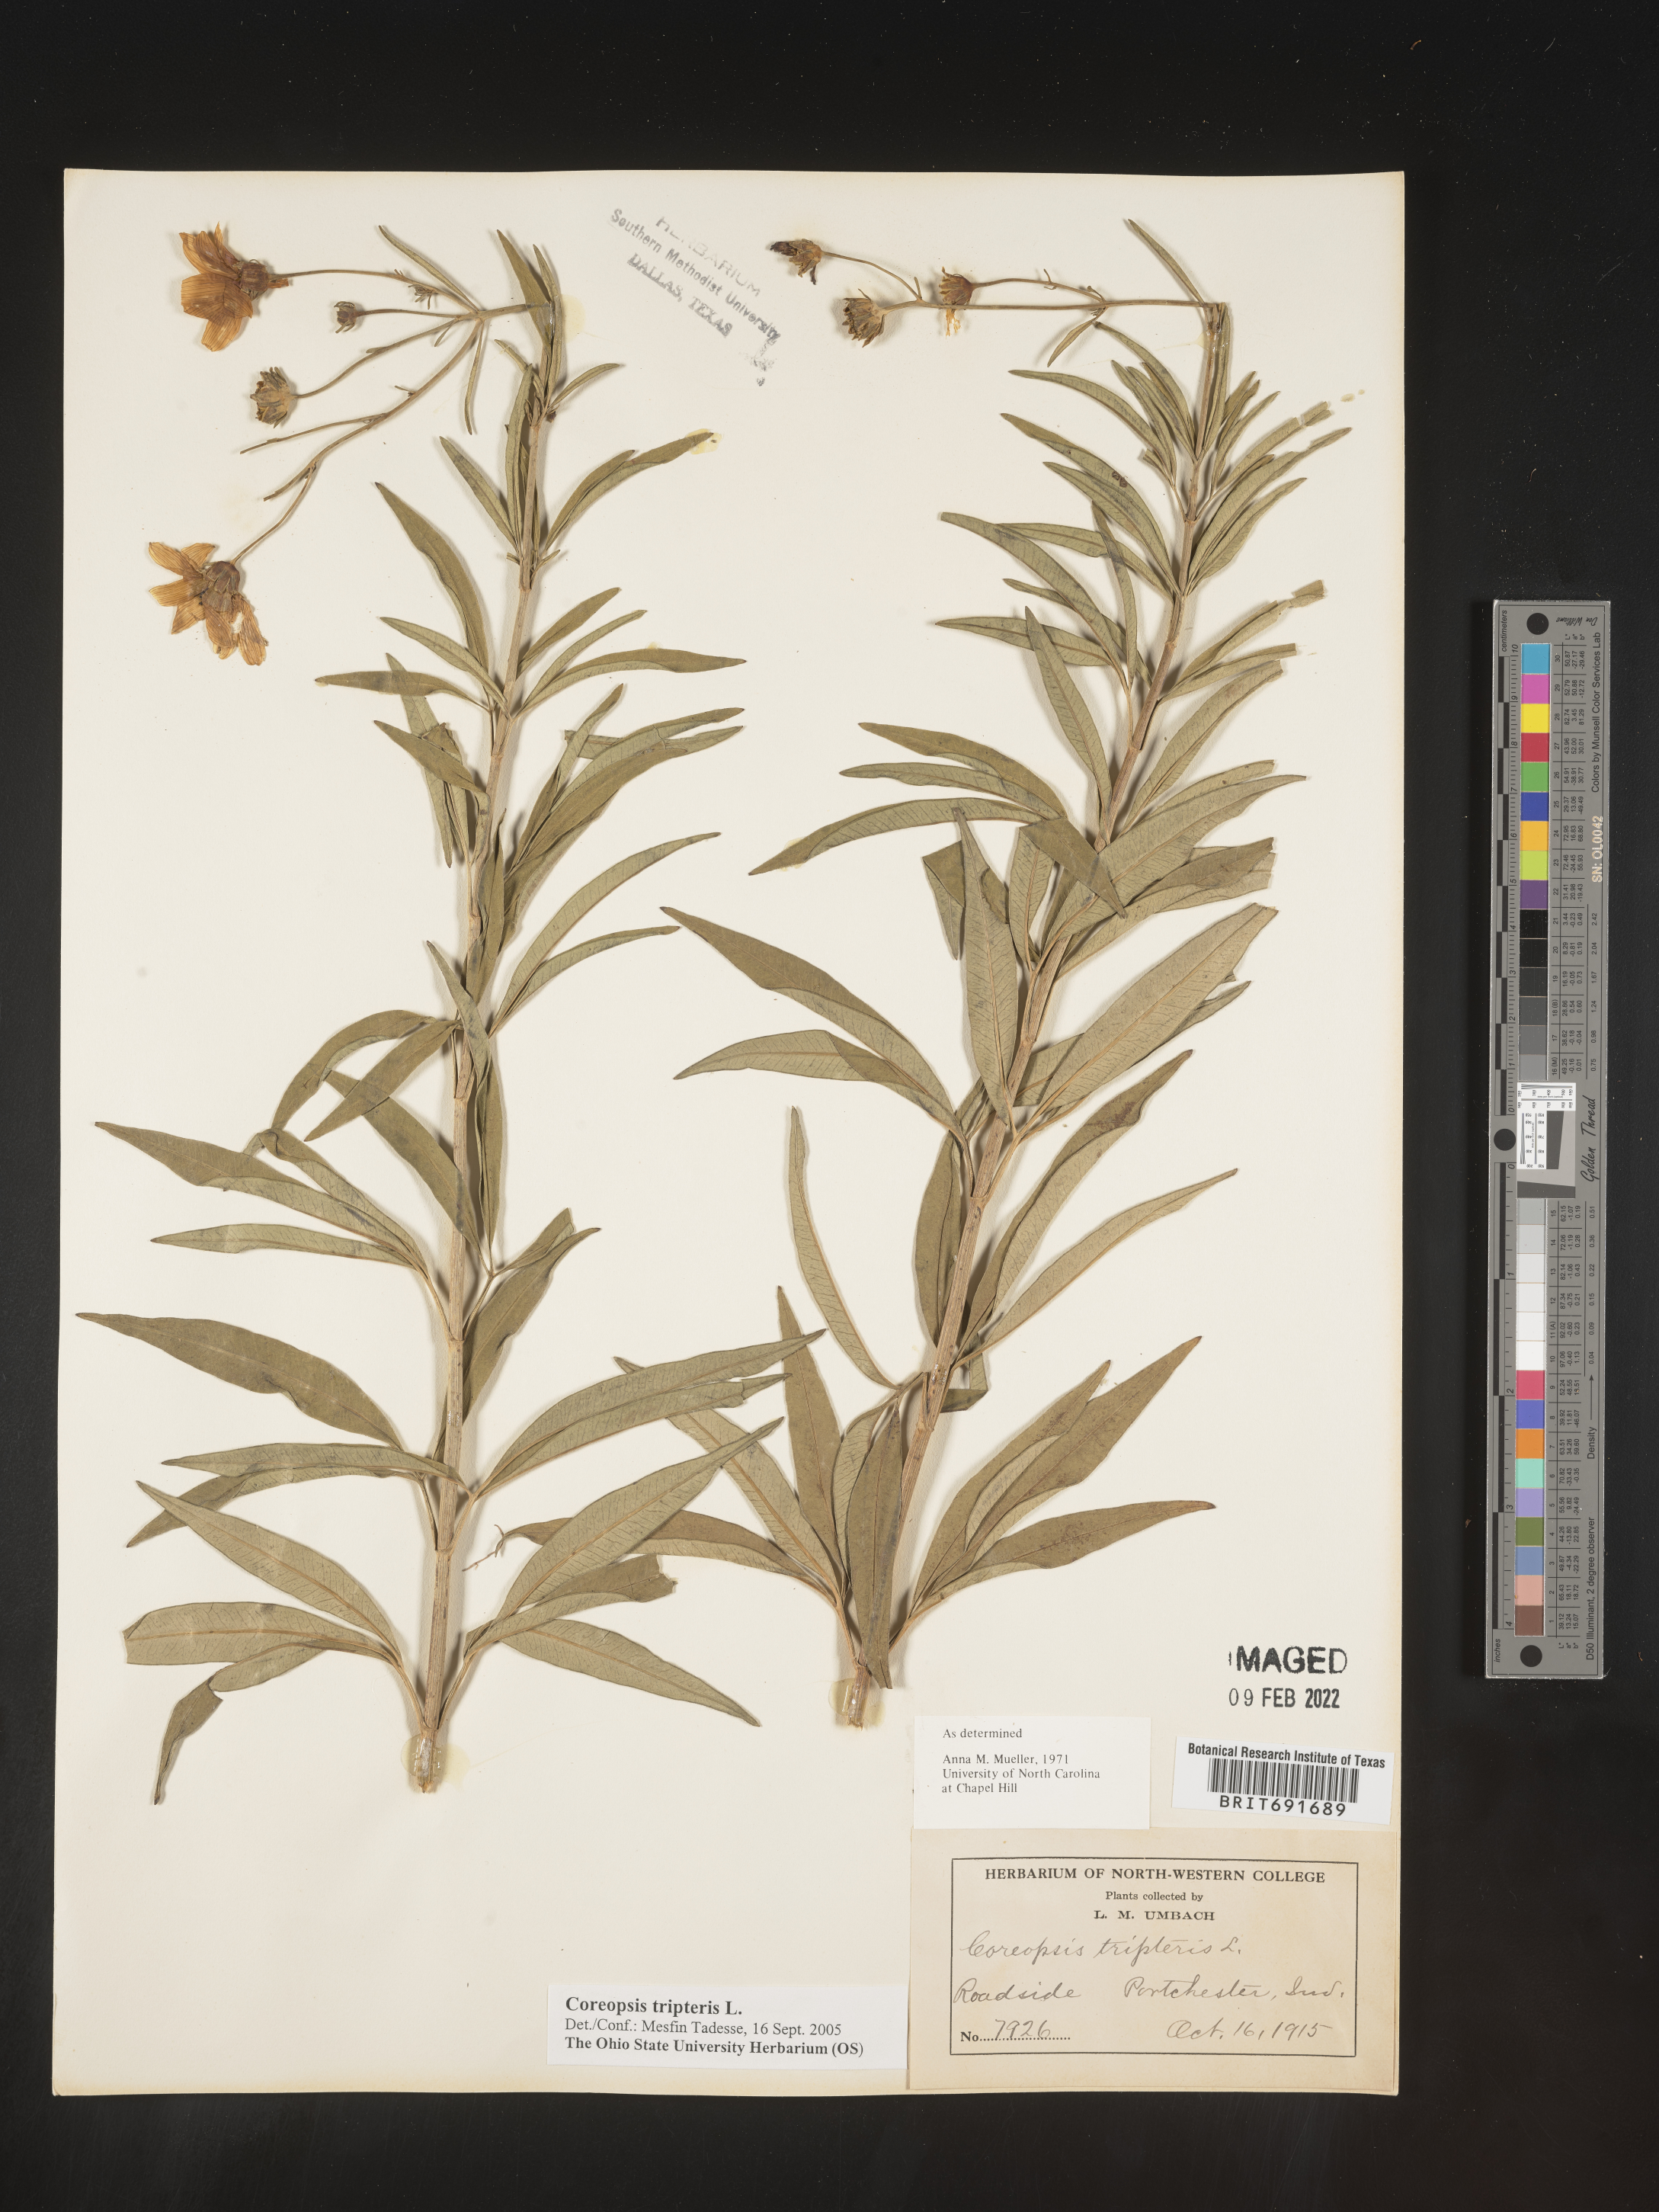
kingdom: Plantae
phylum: Tracheophyta
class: Magnoliopsida
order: Asterales
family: Asteraceae
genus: Coreopsis
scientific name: Coreopsis tripteris
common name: Tall coreopsis
